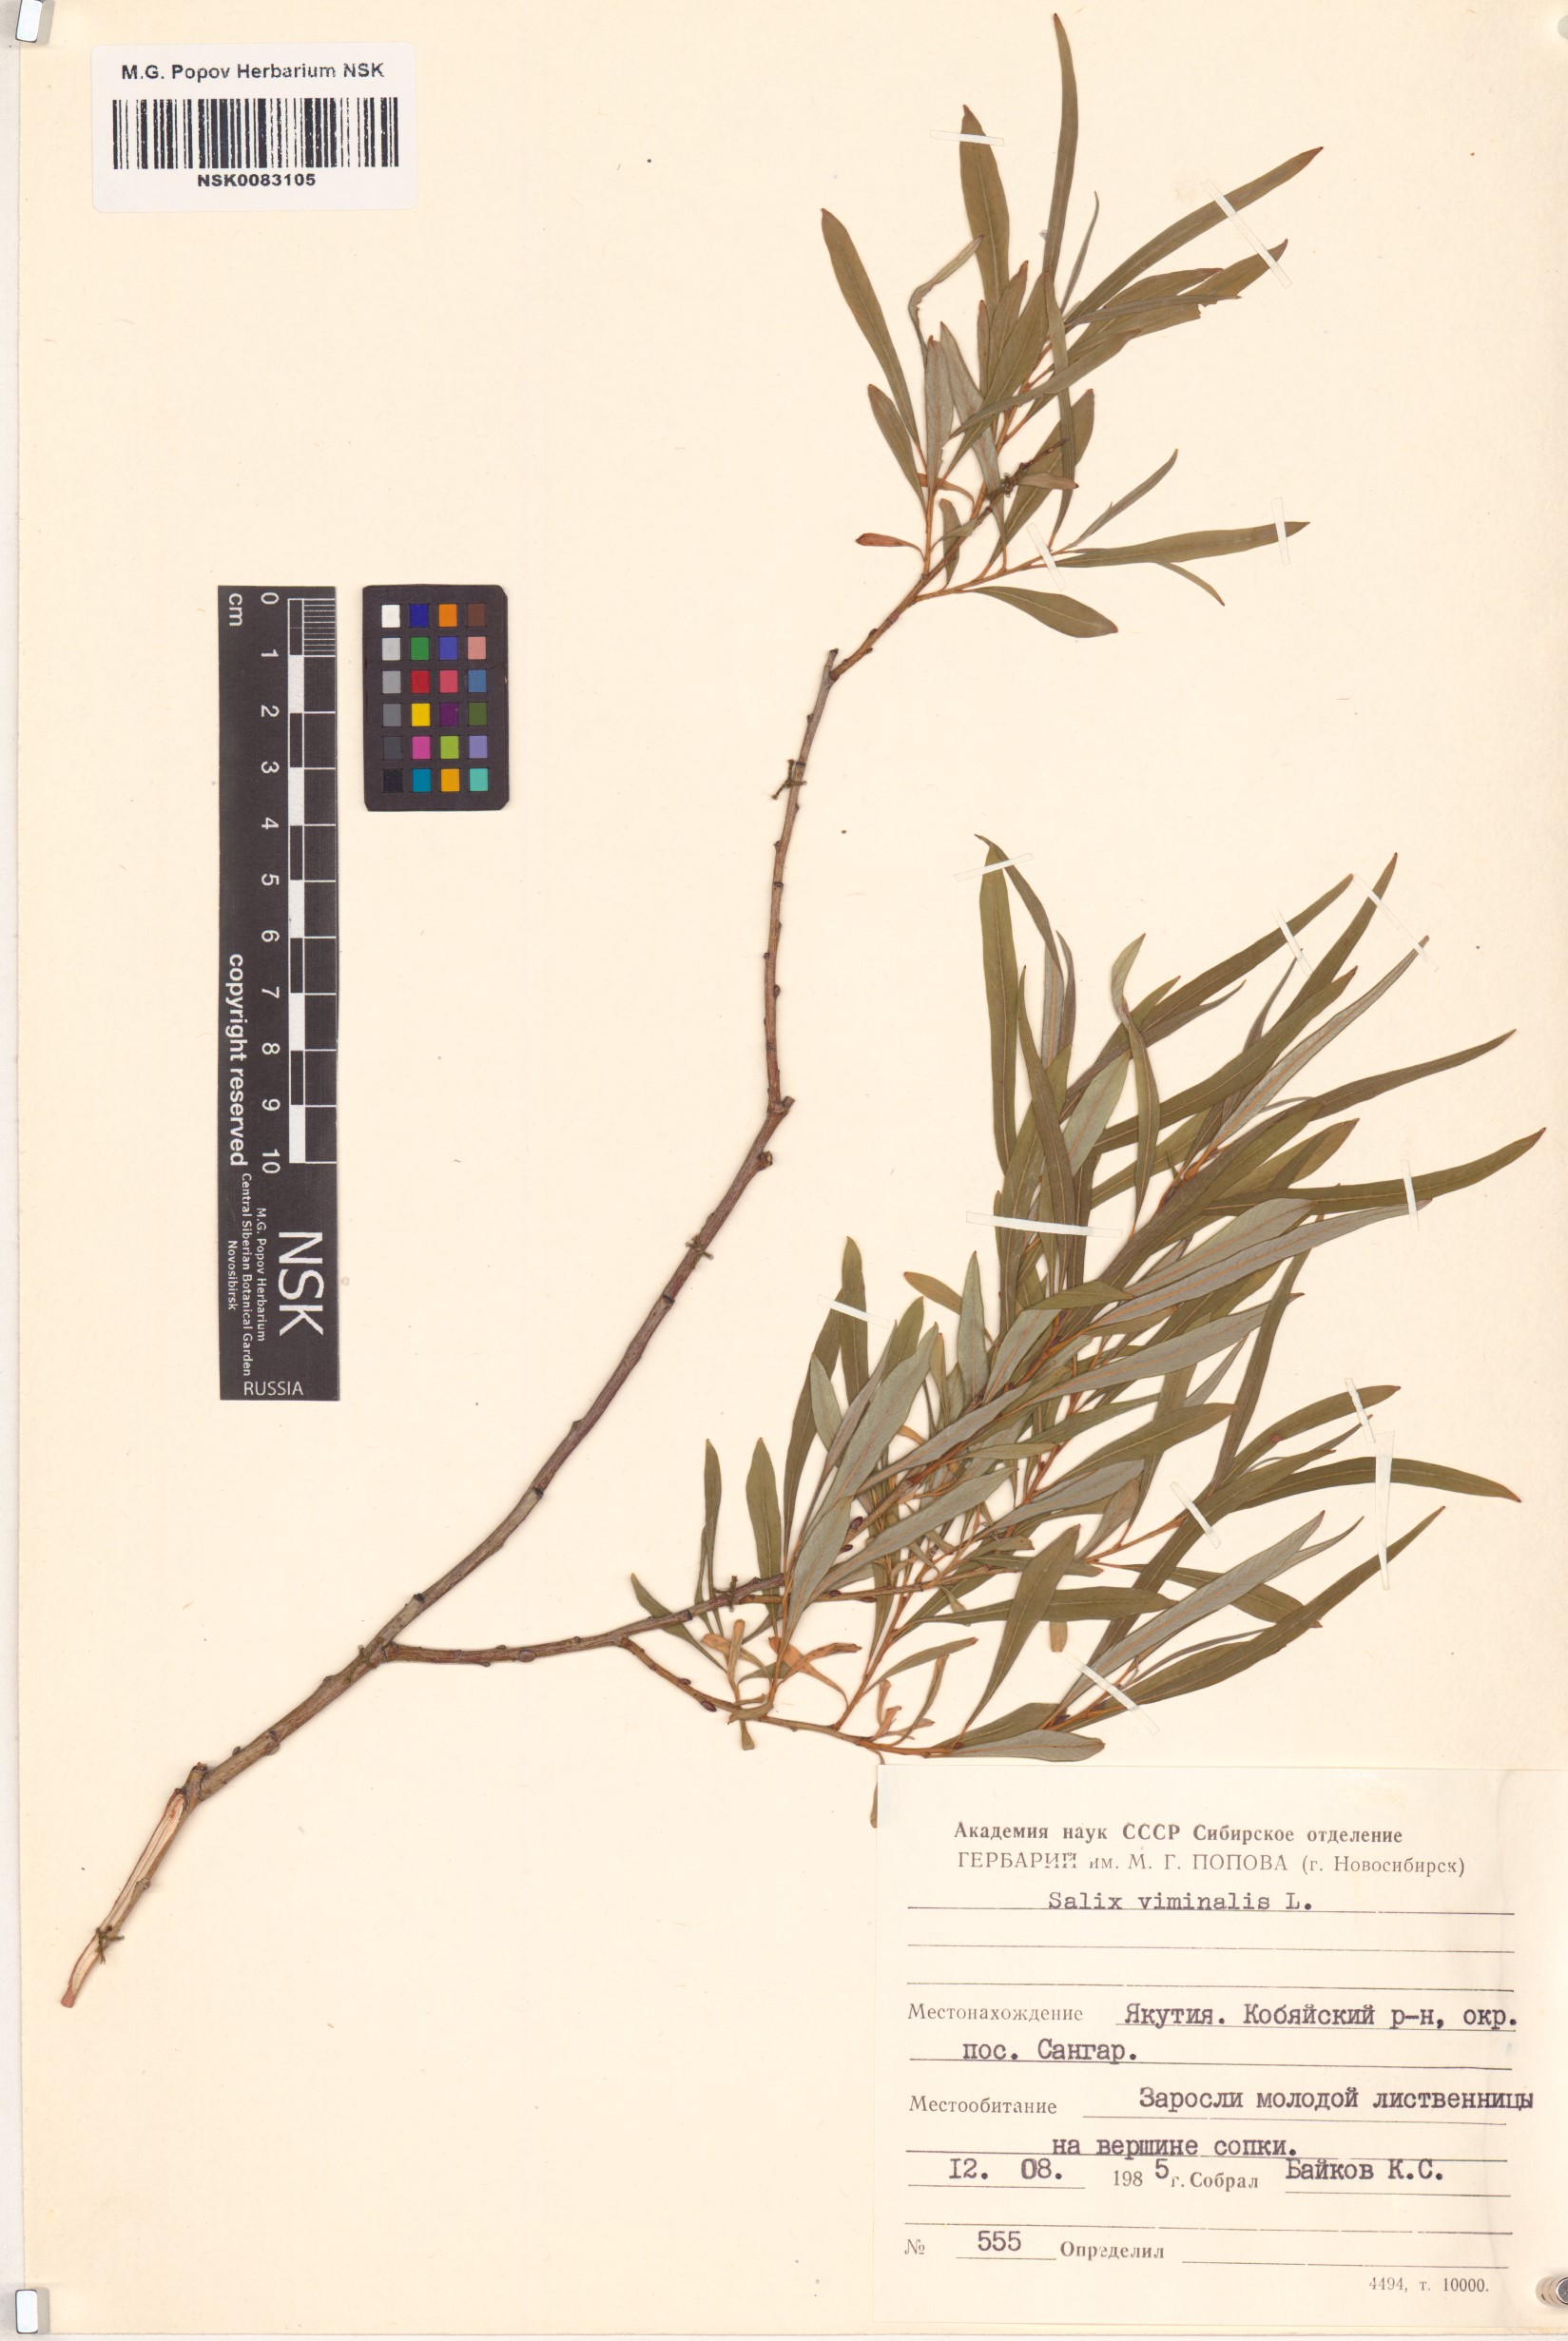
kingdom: Plantae
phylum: Tracheophyta
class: Magnoliopsida
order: Malpighiales
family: Salicaceae
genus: Salix
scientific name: Salix viminalis
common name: Osier
